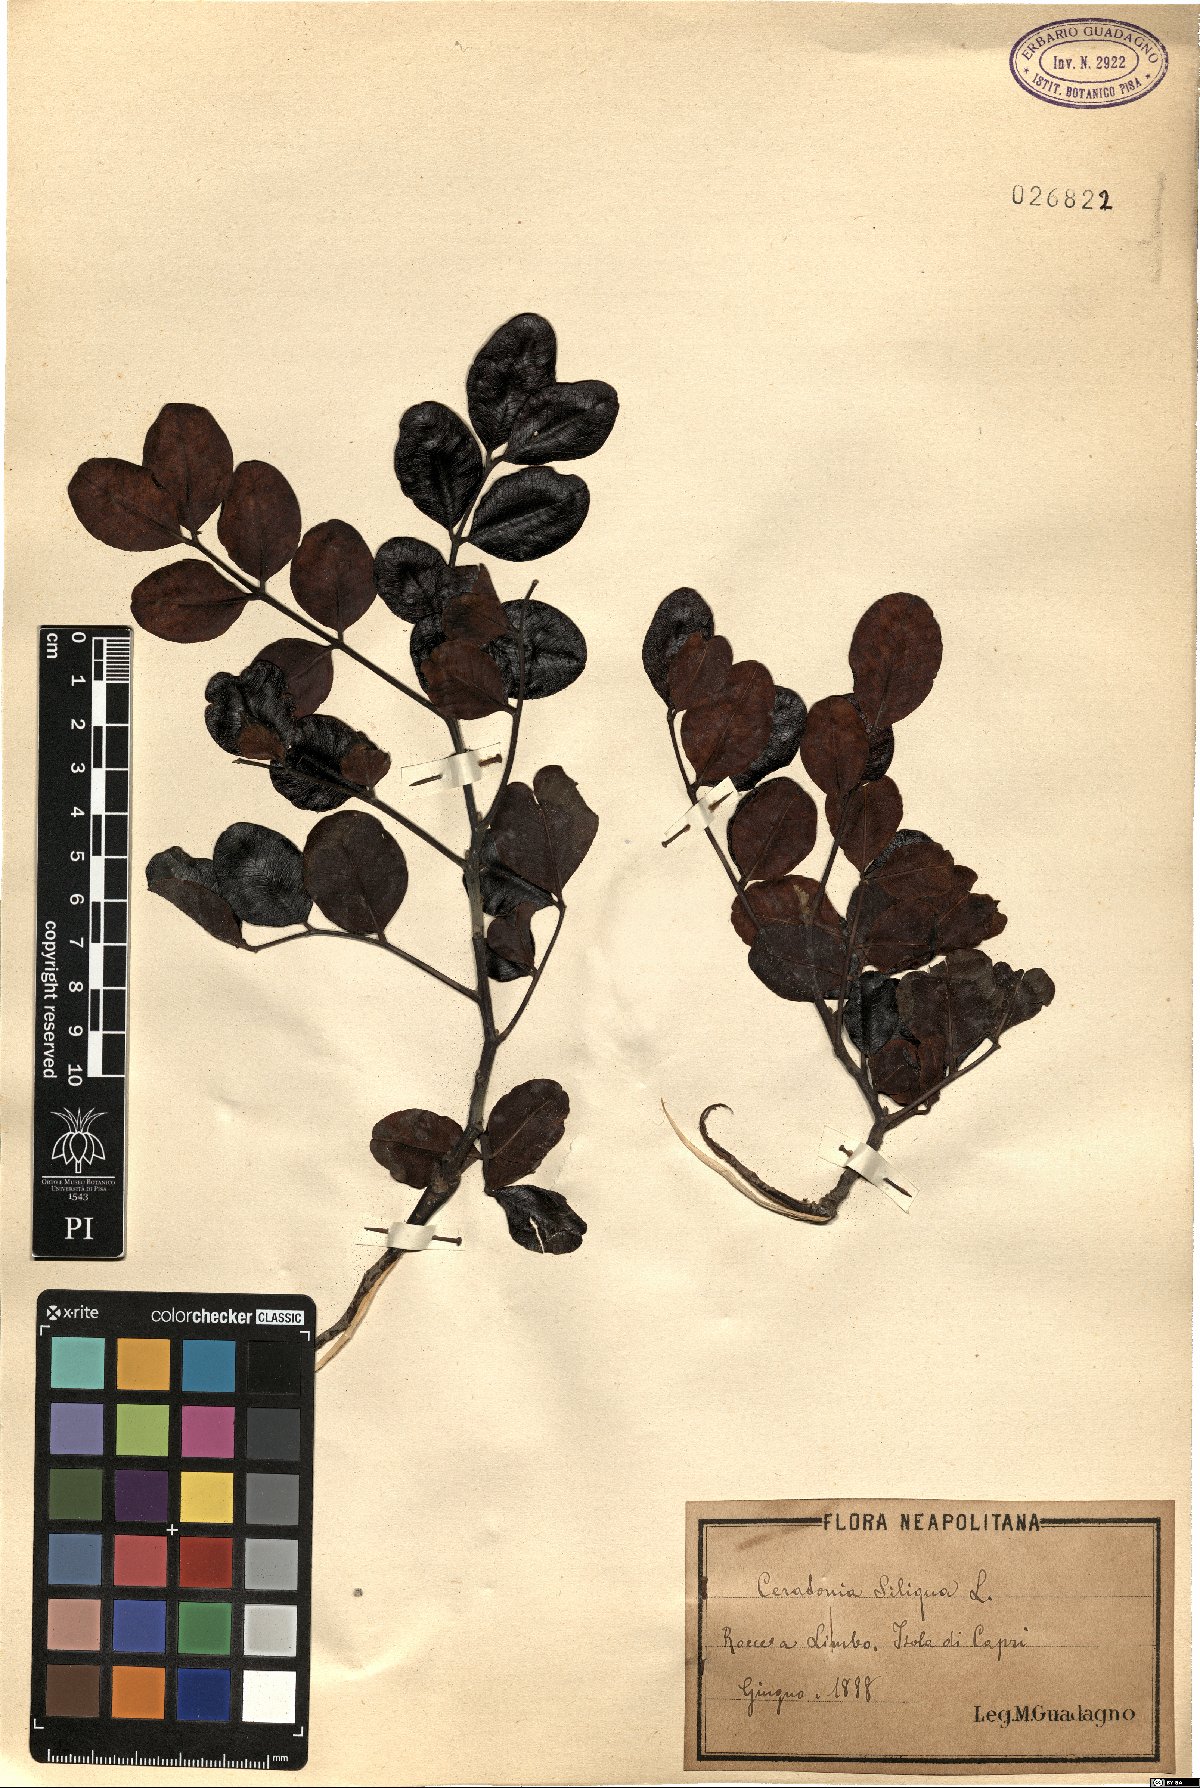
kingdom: Plantae
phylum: Tracheophyta
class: Magnoliopsida
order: Fabales
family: Fabaceae
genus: Ceratonia
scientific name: Ceratonia siliqua
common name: Carob
